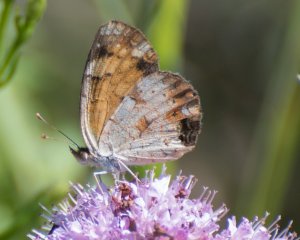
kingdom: Animalia
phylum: Arthropoda
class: Insecta
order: Lepidoptera
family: Nymphalidae
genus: Phyciodes
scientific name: Phyciodes tharos
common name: Pearl Crescent
